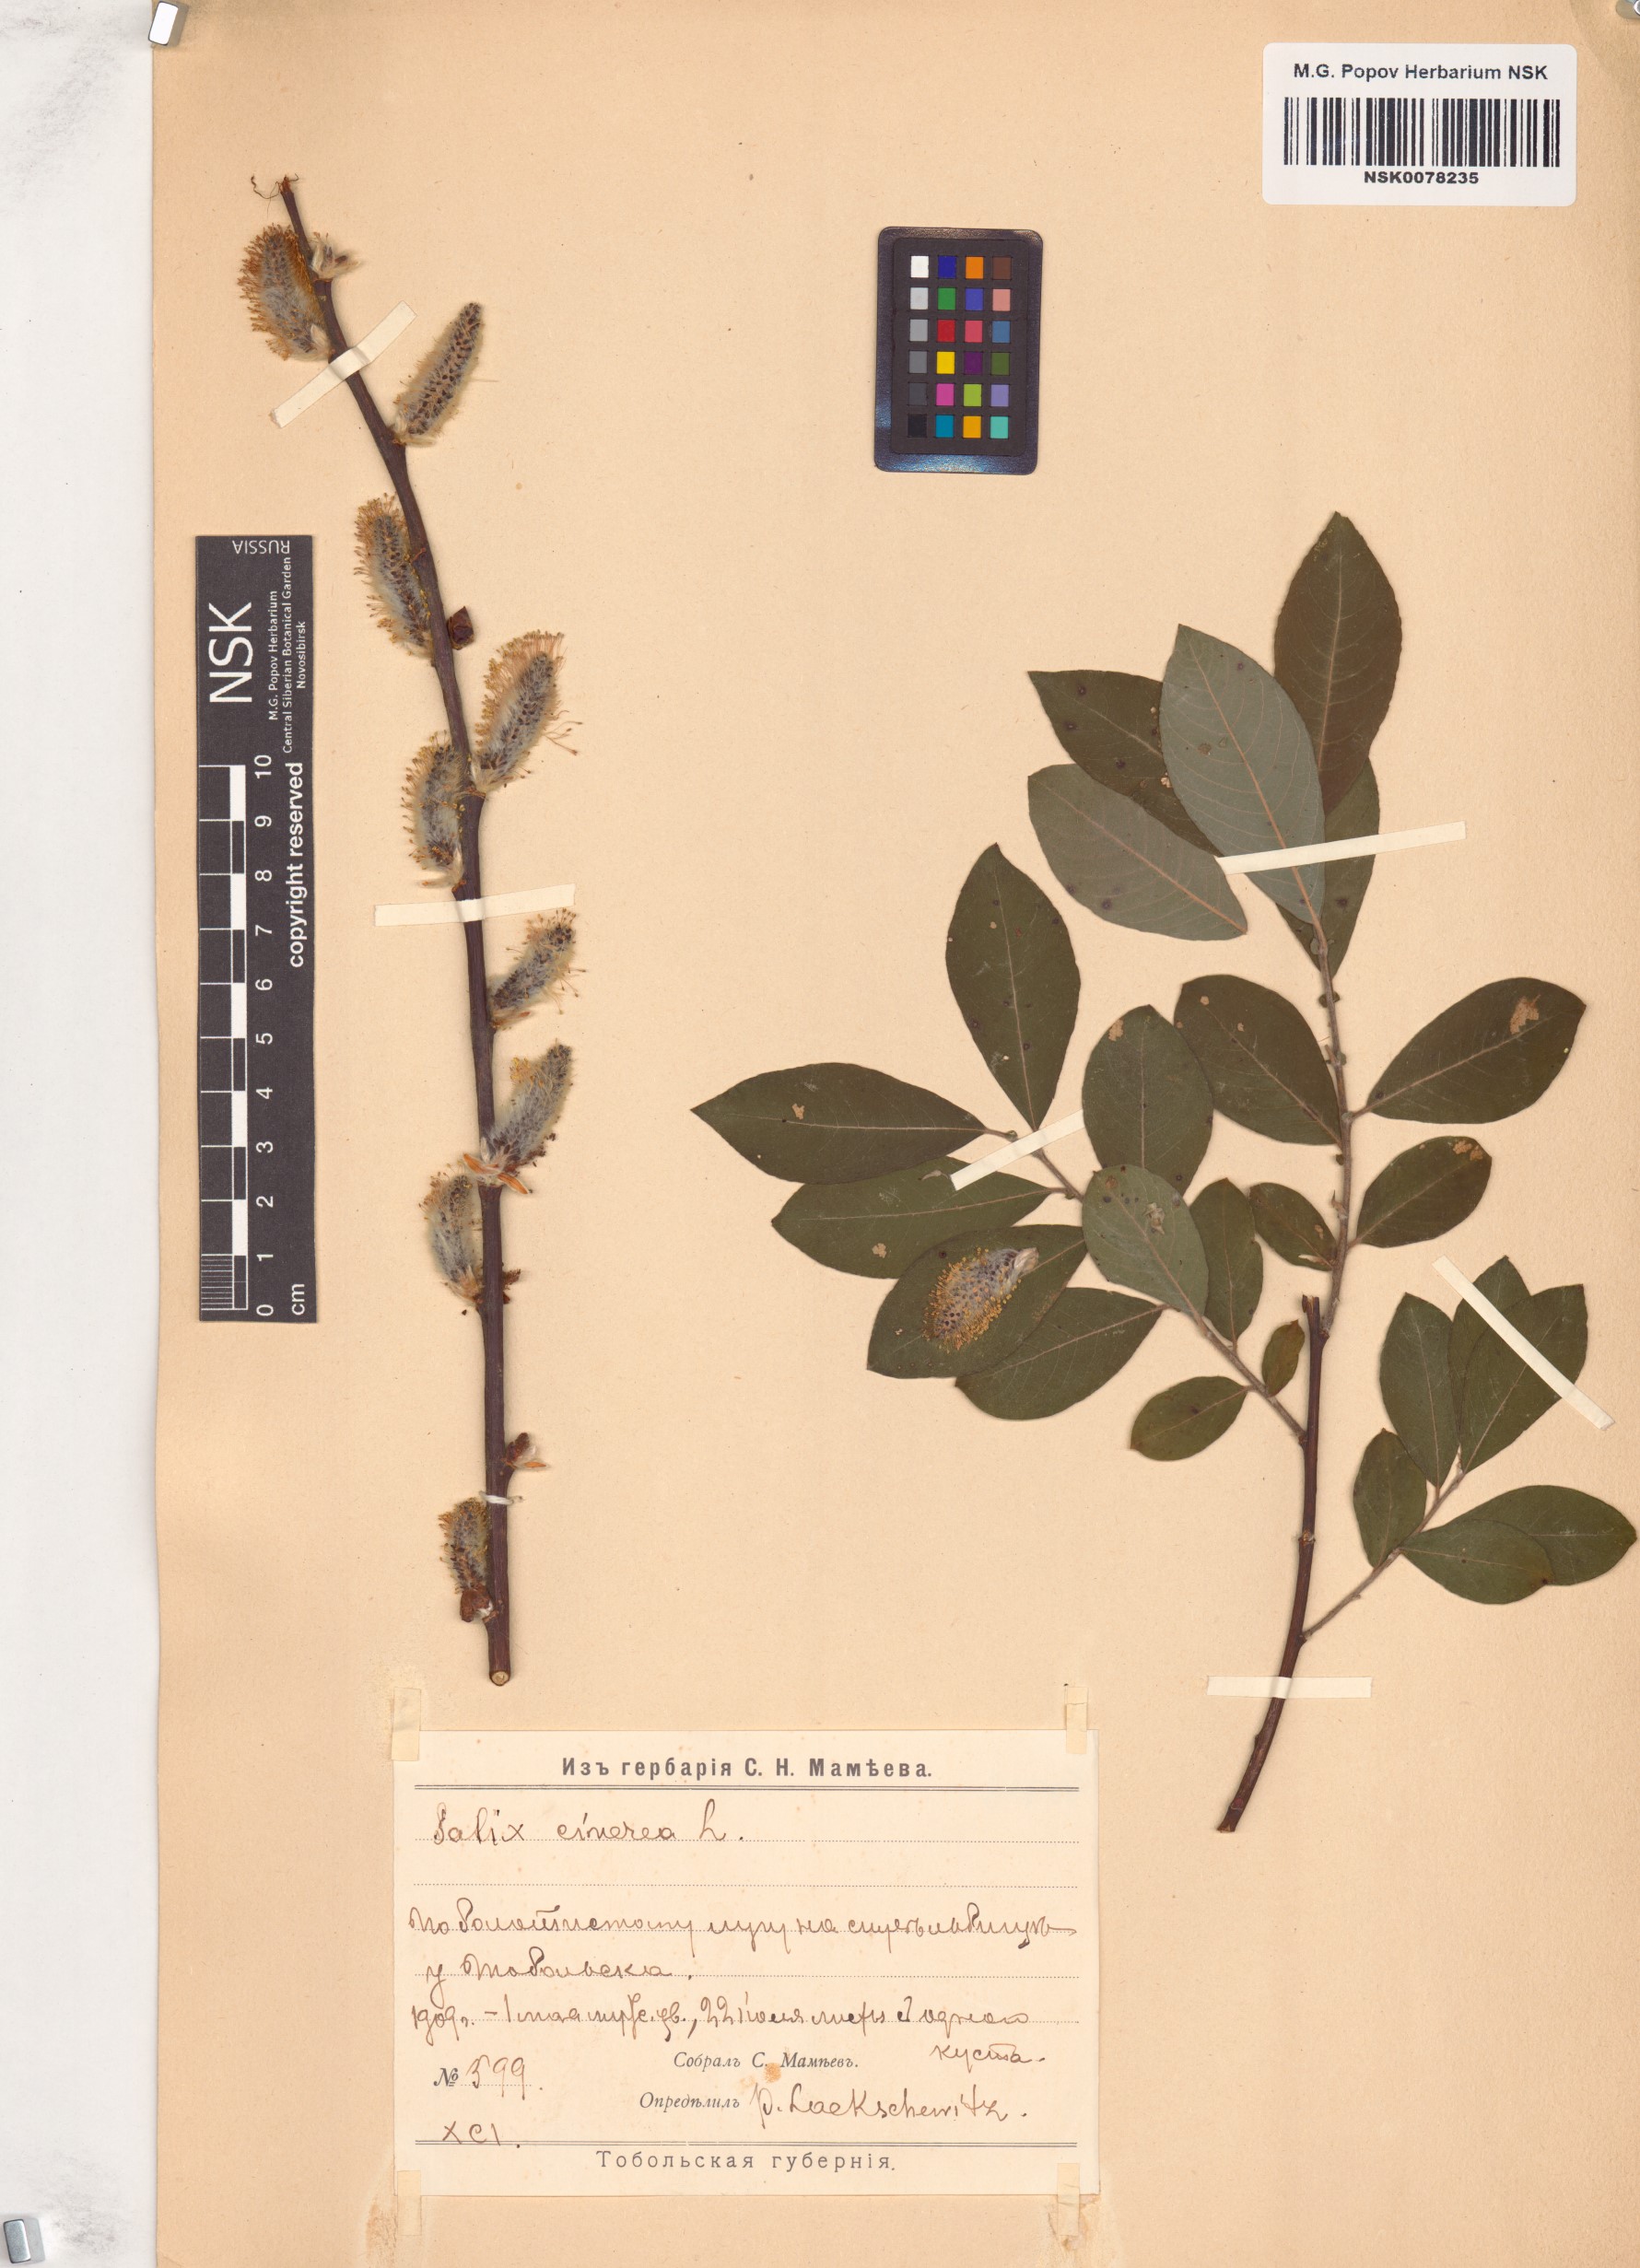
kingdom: Plantae
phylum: Tracheophyta
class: Magnoliopsida
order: Malpighiales
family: Salicaceae
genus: Salix
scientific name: Salix cinerea
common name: Common sallow
